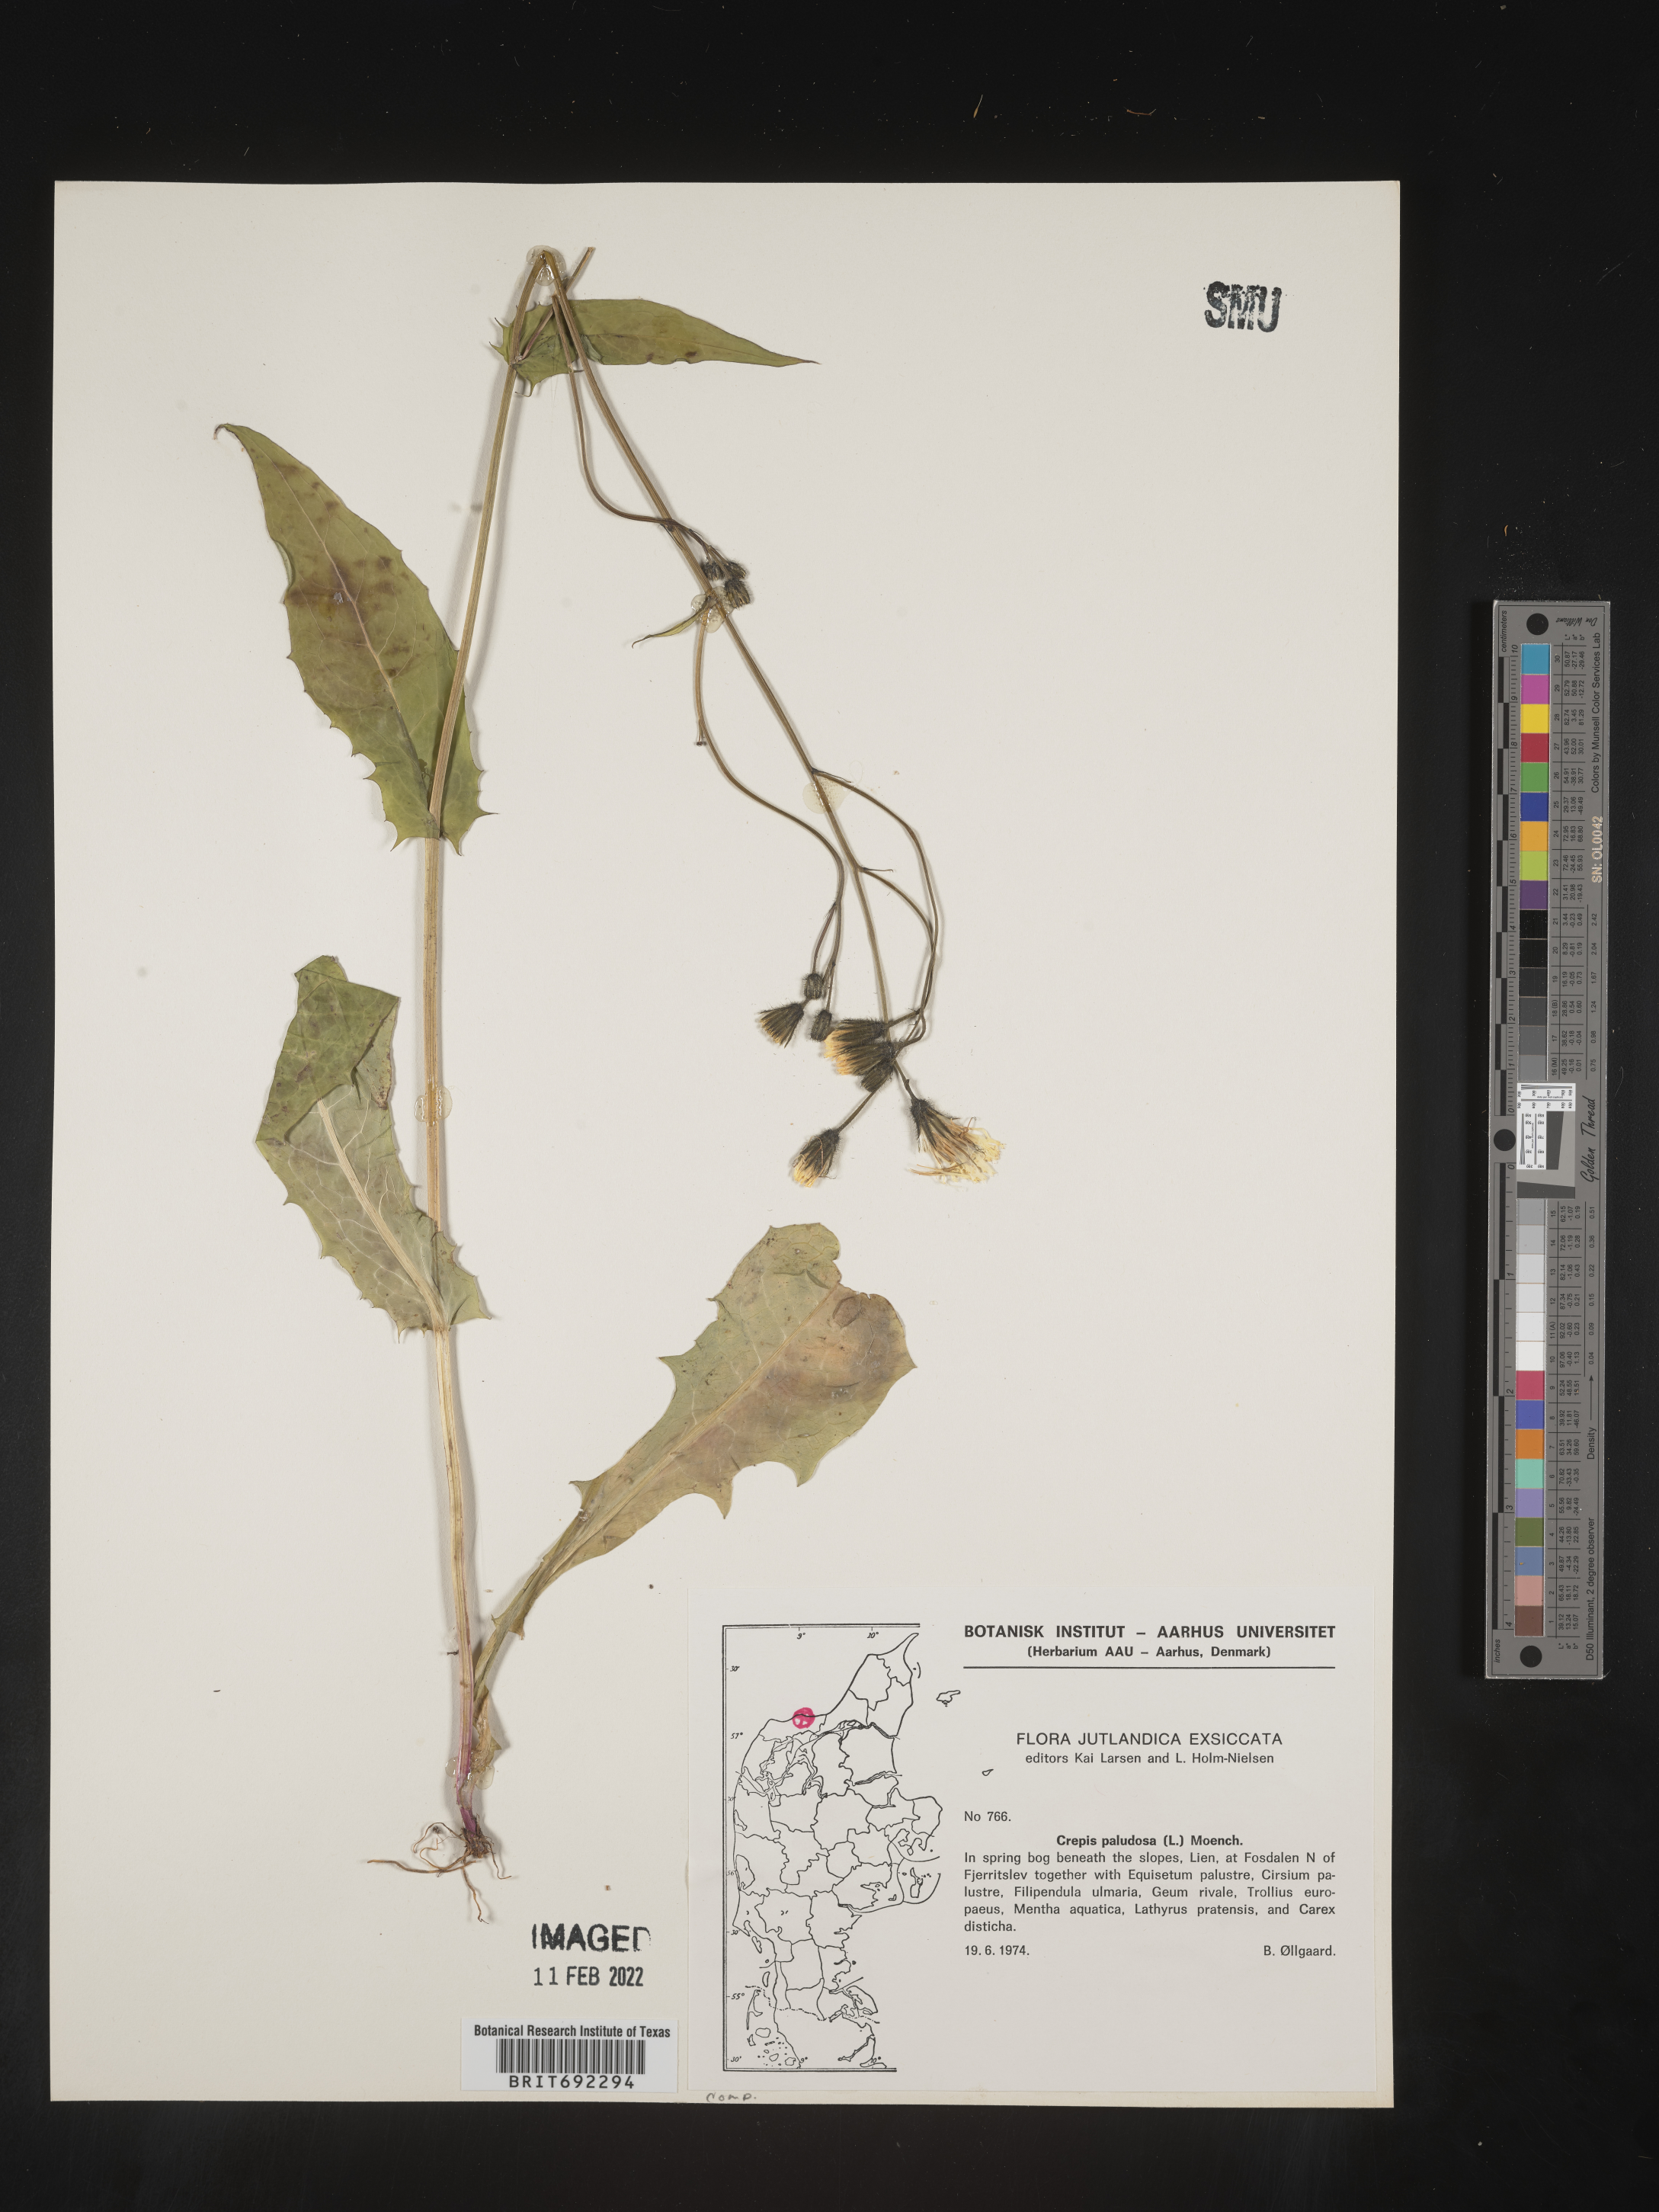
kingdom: Plantae
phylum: Tracheophyta
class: Magnoliopsida
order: Asterales
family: Asteraceae
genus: Crepis
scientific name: Crepis
